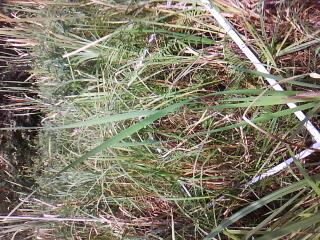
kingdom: Plantae
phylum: Tracheophyta
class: Magnoliopsida
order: Caryophyllales
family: Polygonaceae
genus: Persicaria
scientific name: Persicaria amphibia
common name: Amphibious bistort
